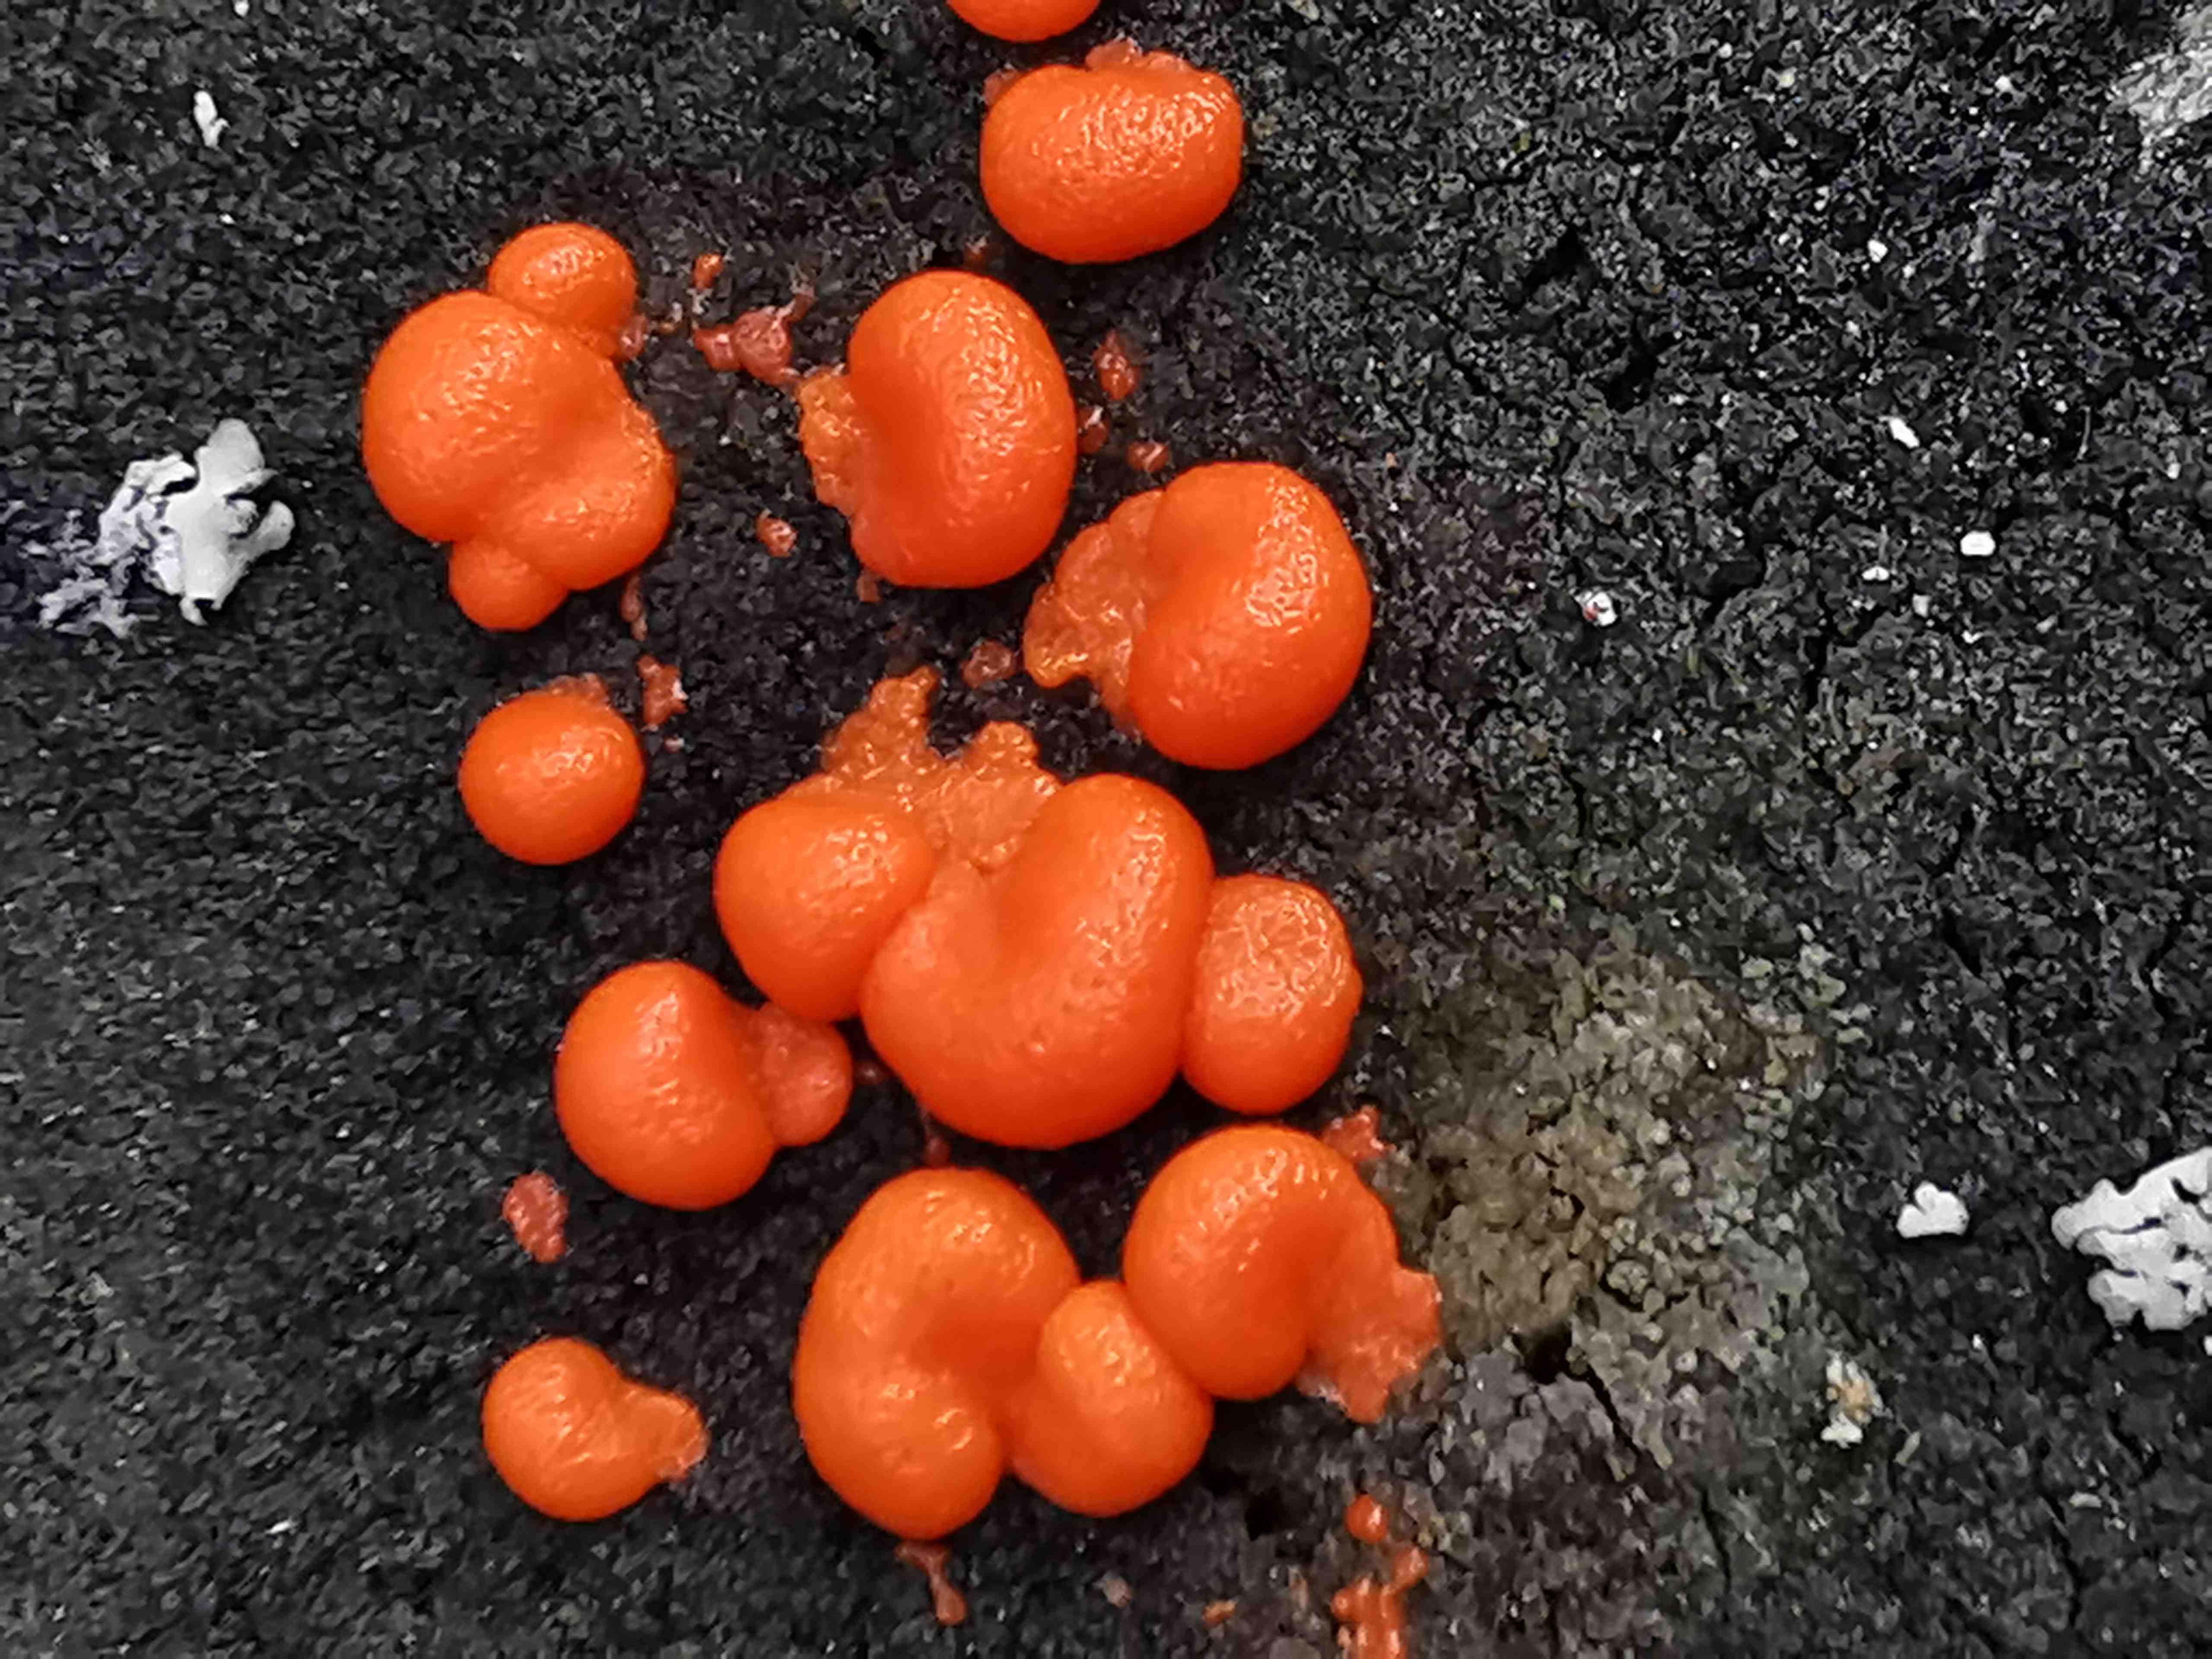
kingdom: Protozoa
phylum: Mycetozoa
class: Myxomycetes
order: Cribrariales
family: Tubiferaceae
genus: Lycogala
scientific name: Lycogala
